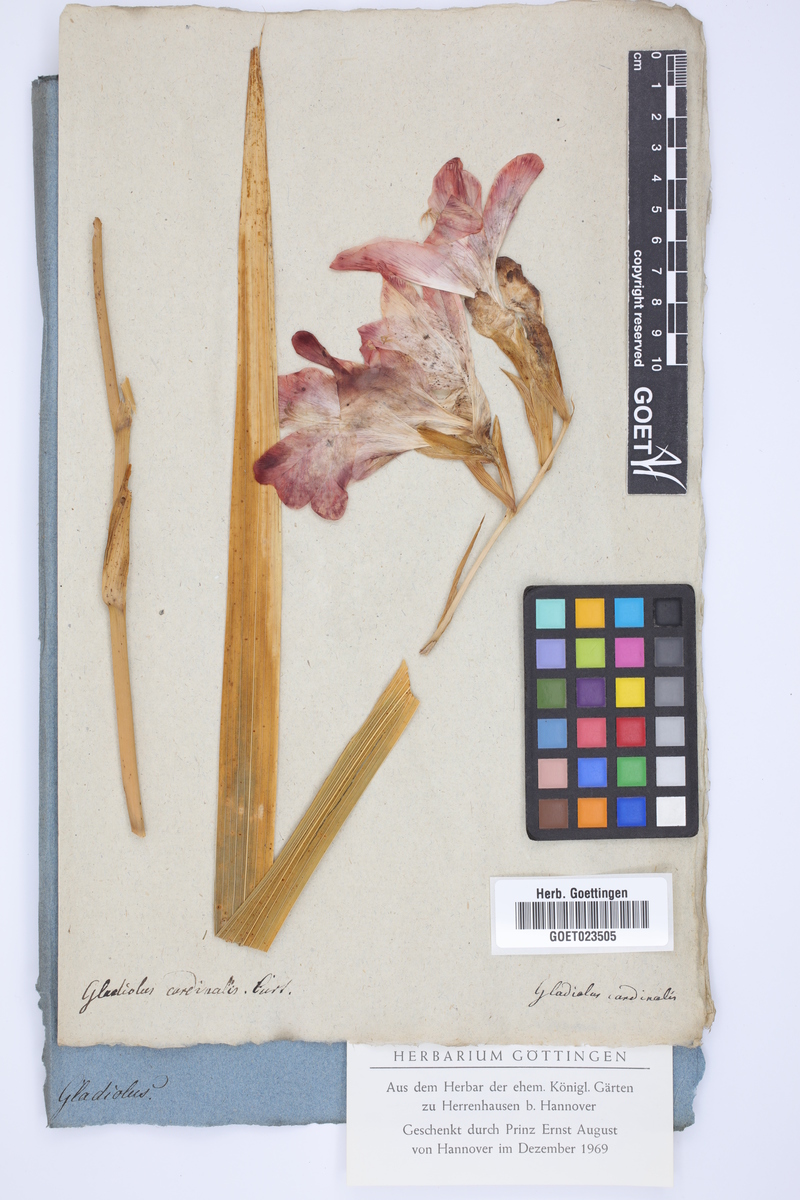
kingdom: Plantae
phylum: Tracheophyta
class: Liliopsida
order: Asparagales
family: Iridaceae
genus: Gladiolus
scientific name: Gladiolus cardinalis
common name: New year-lily
